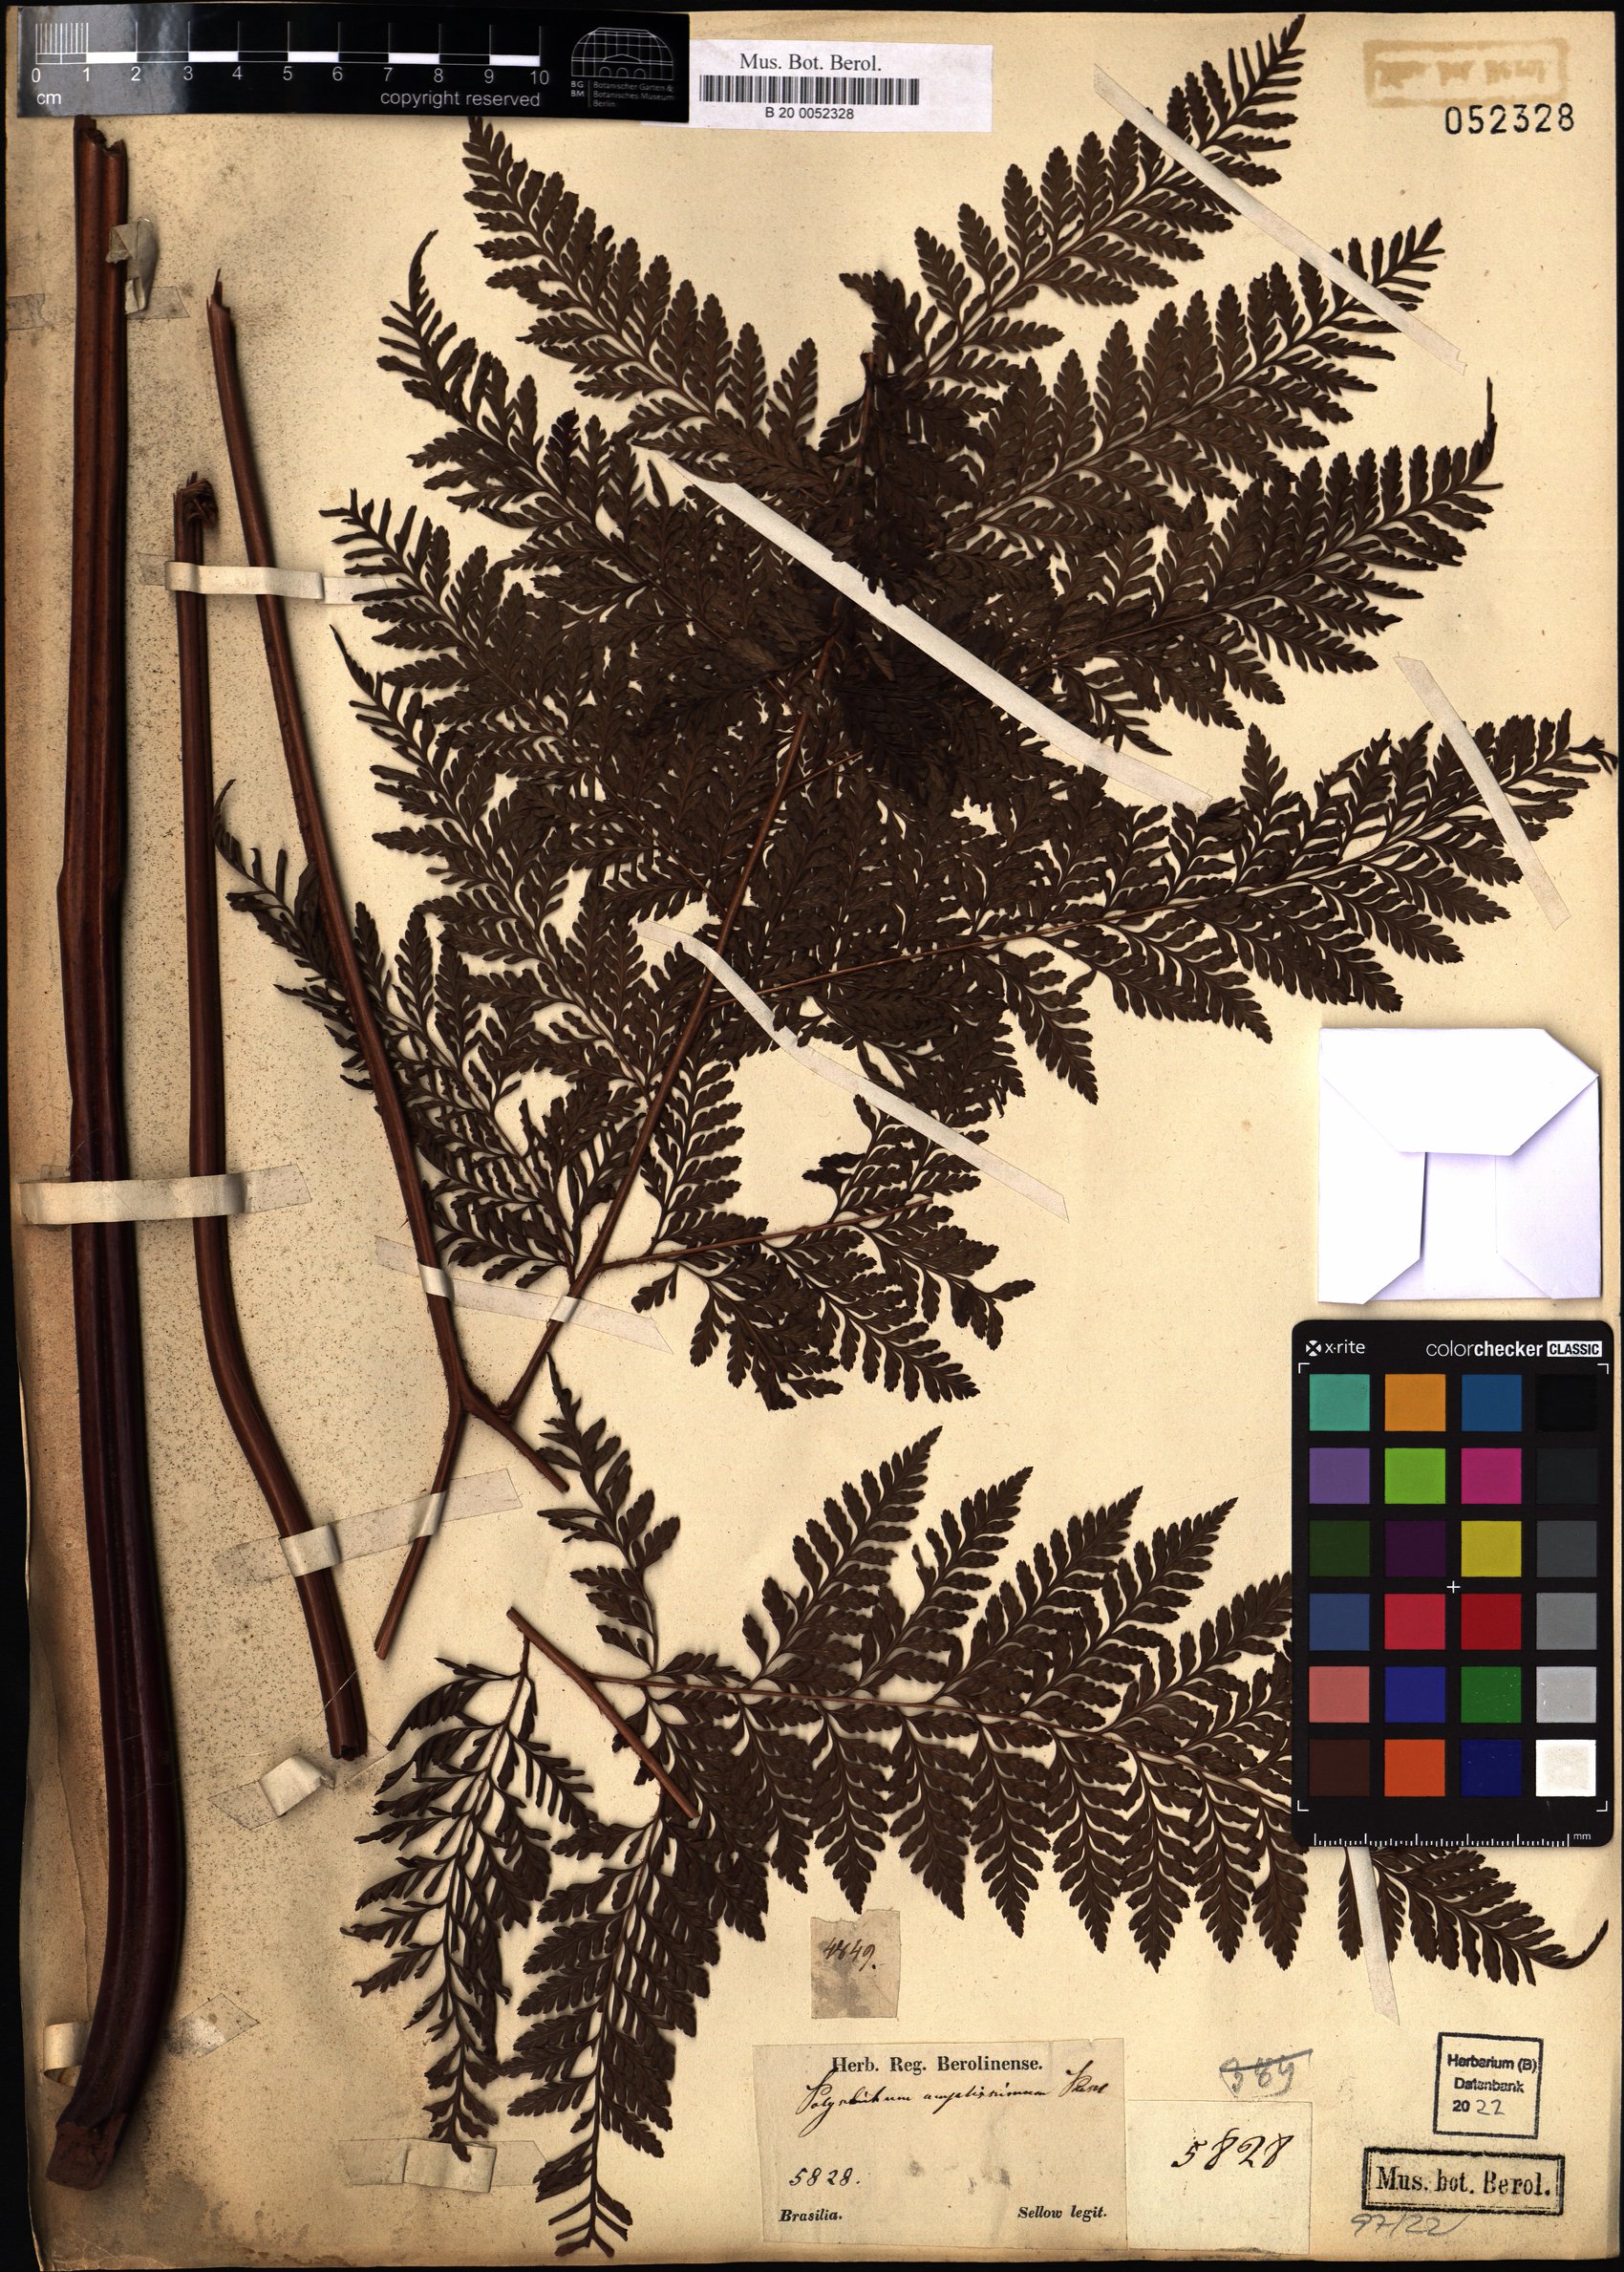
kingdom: Plantae
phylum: Tracheophyta
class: Polypodiopsida
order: Polypodiales
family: Dryopteridaceae
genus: Lastreopsis
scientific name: Lastreopsis amplissima
